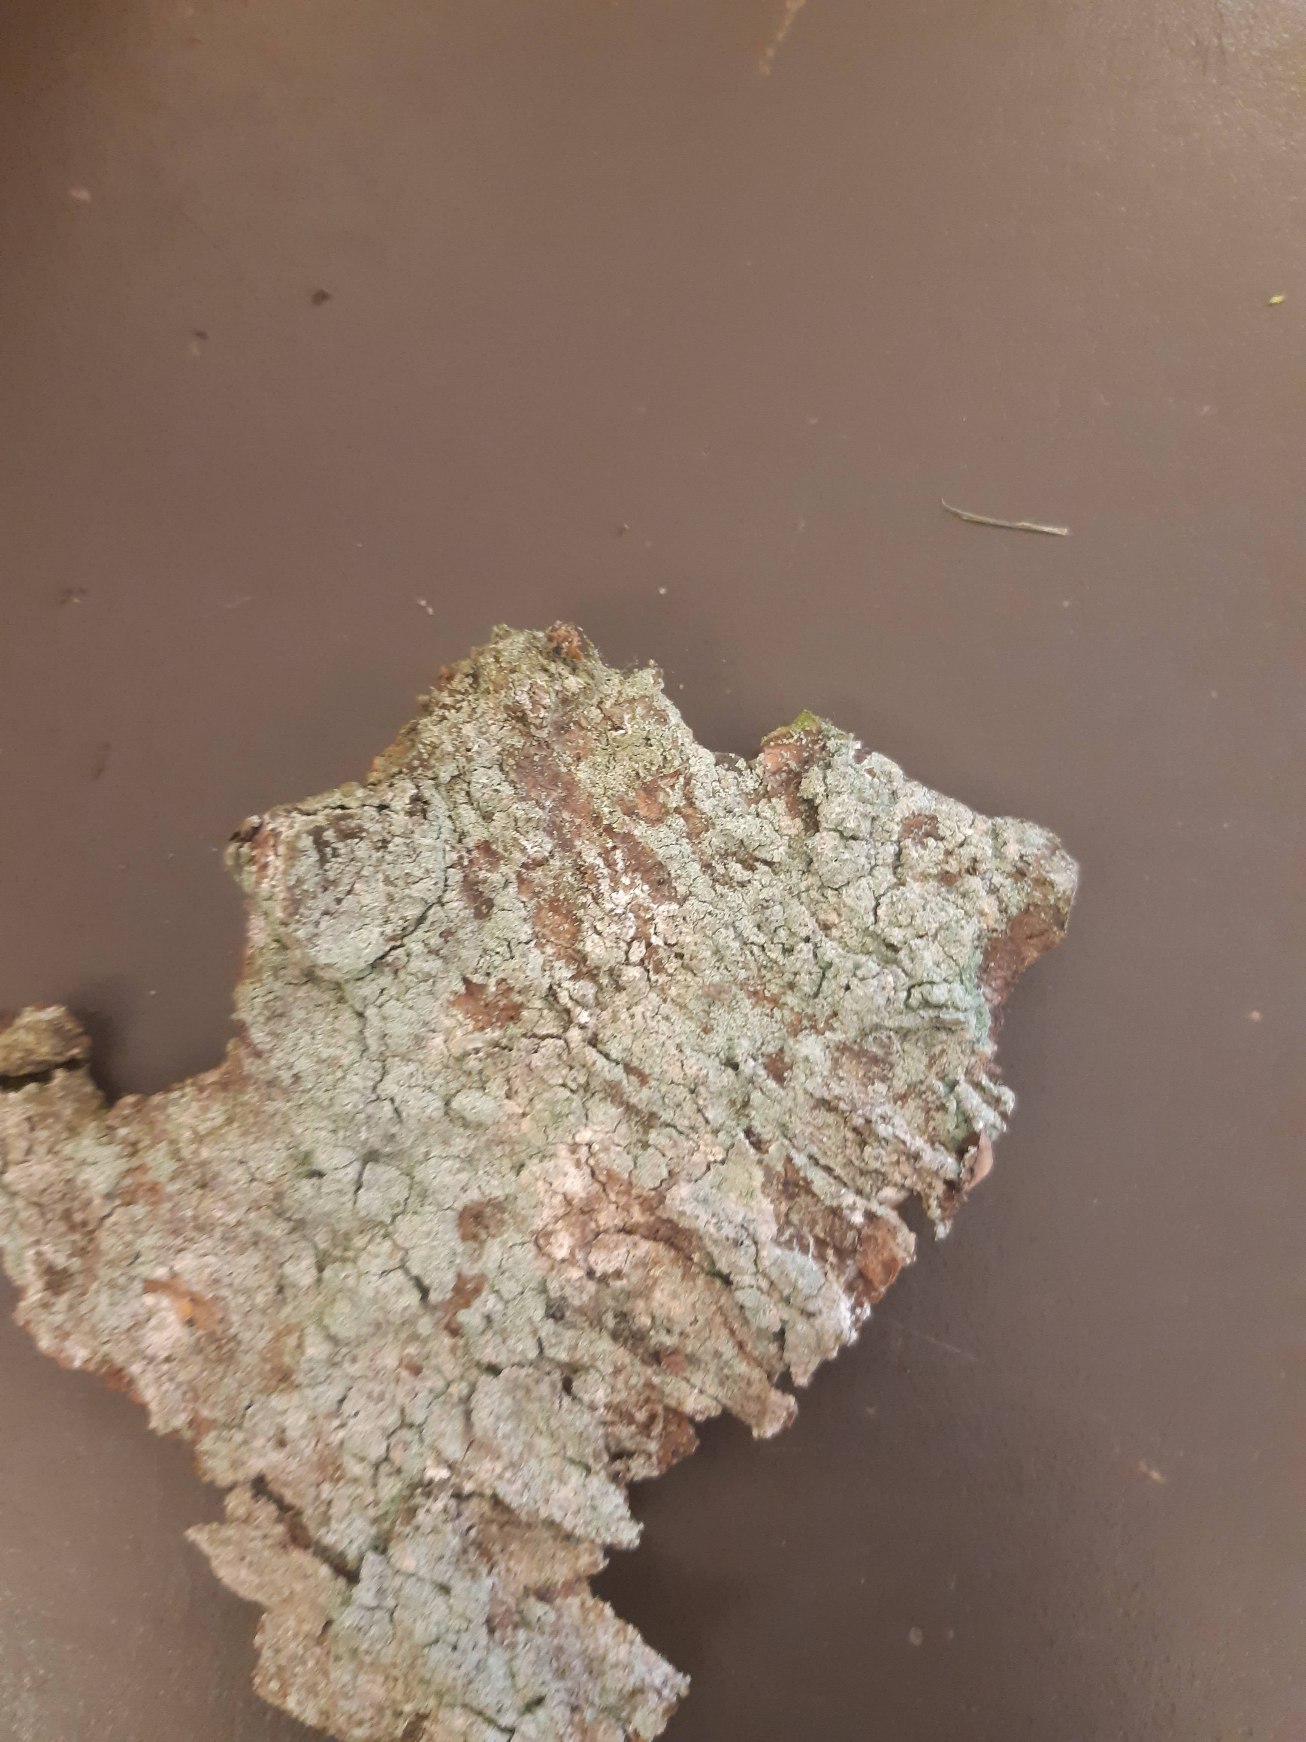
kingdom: Fungi
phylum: Ascomycota
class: Lecanoromycetes
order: Lecanorales
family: Stereocaulaceae
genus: Lepraria
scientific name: Lepraria
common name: Støvlav
